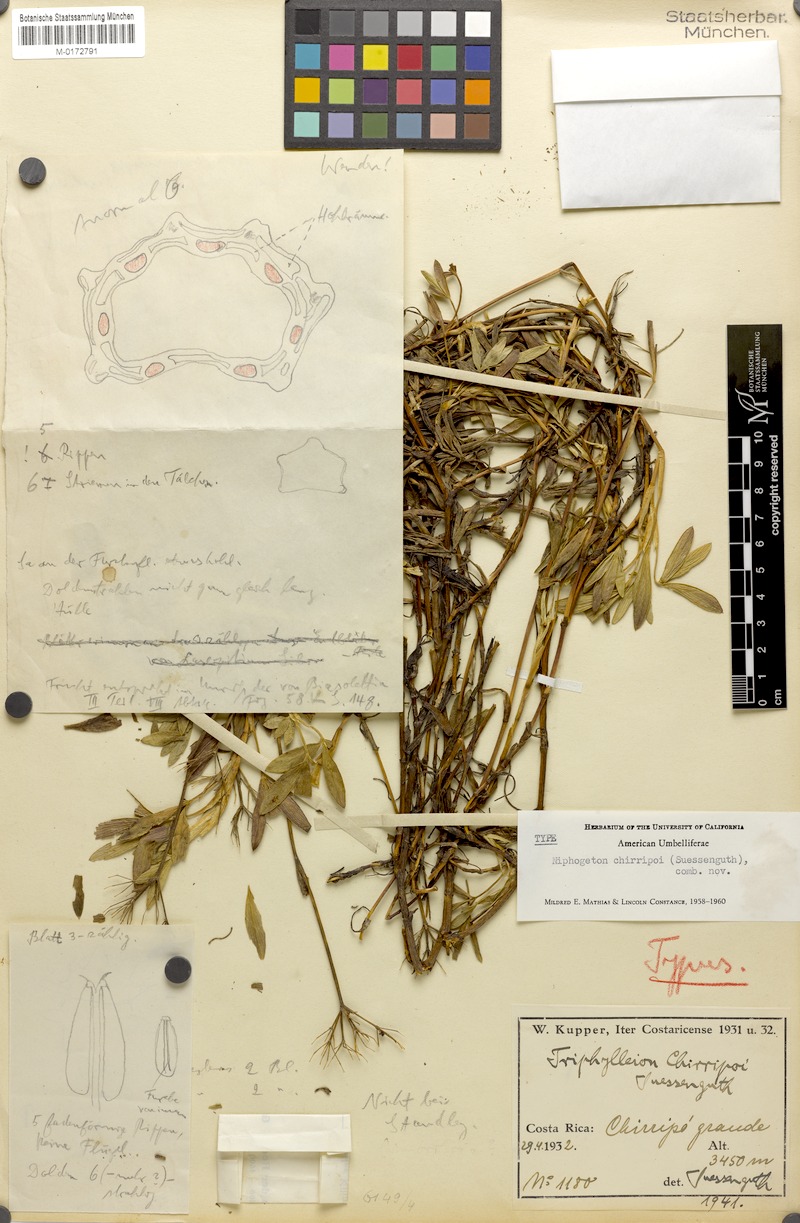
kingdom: Plantae
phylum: Tracheophyta
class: Magnoliopsida
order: Apiales
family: Apiaceae
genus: Niphogeton
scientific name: Niphogeton chirripoi
